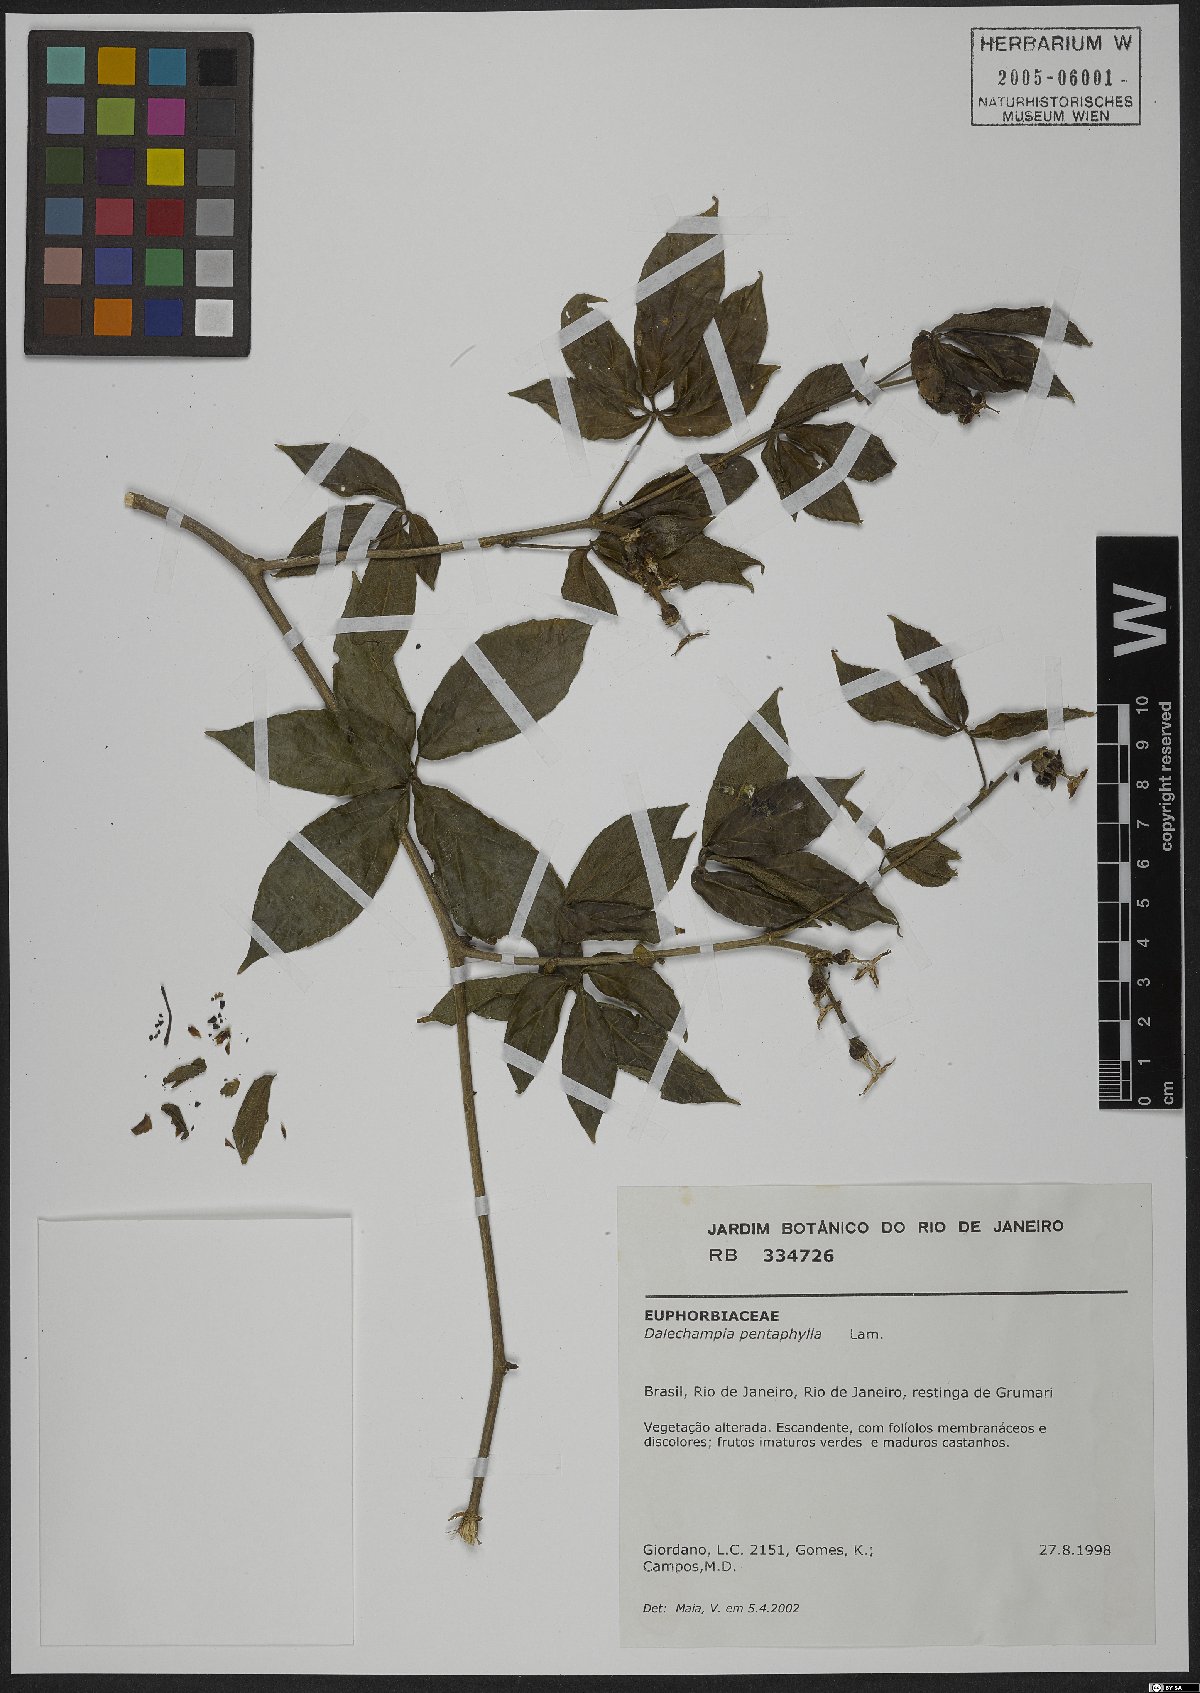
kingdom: Plantae
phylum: Tracheophyta
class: Magnoliopsida
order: Malpighiales
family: Euphorbiaceae
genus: Dalechampia
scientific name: Dalechampia pentaphylla
